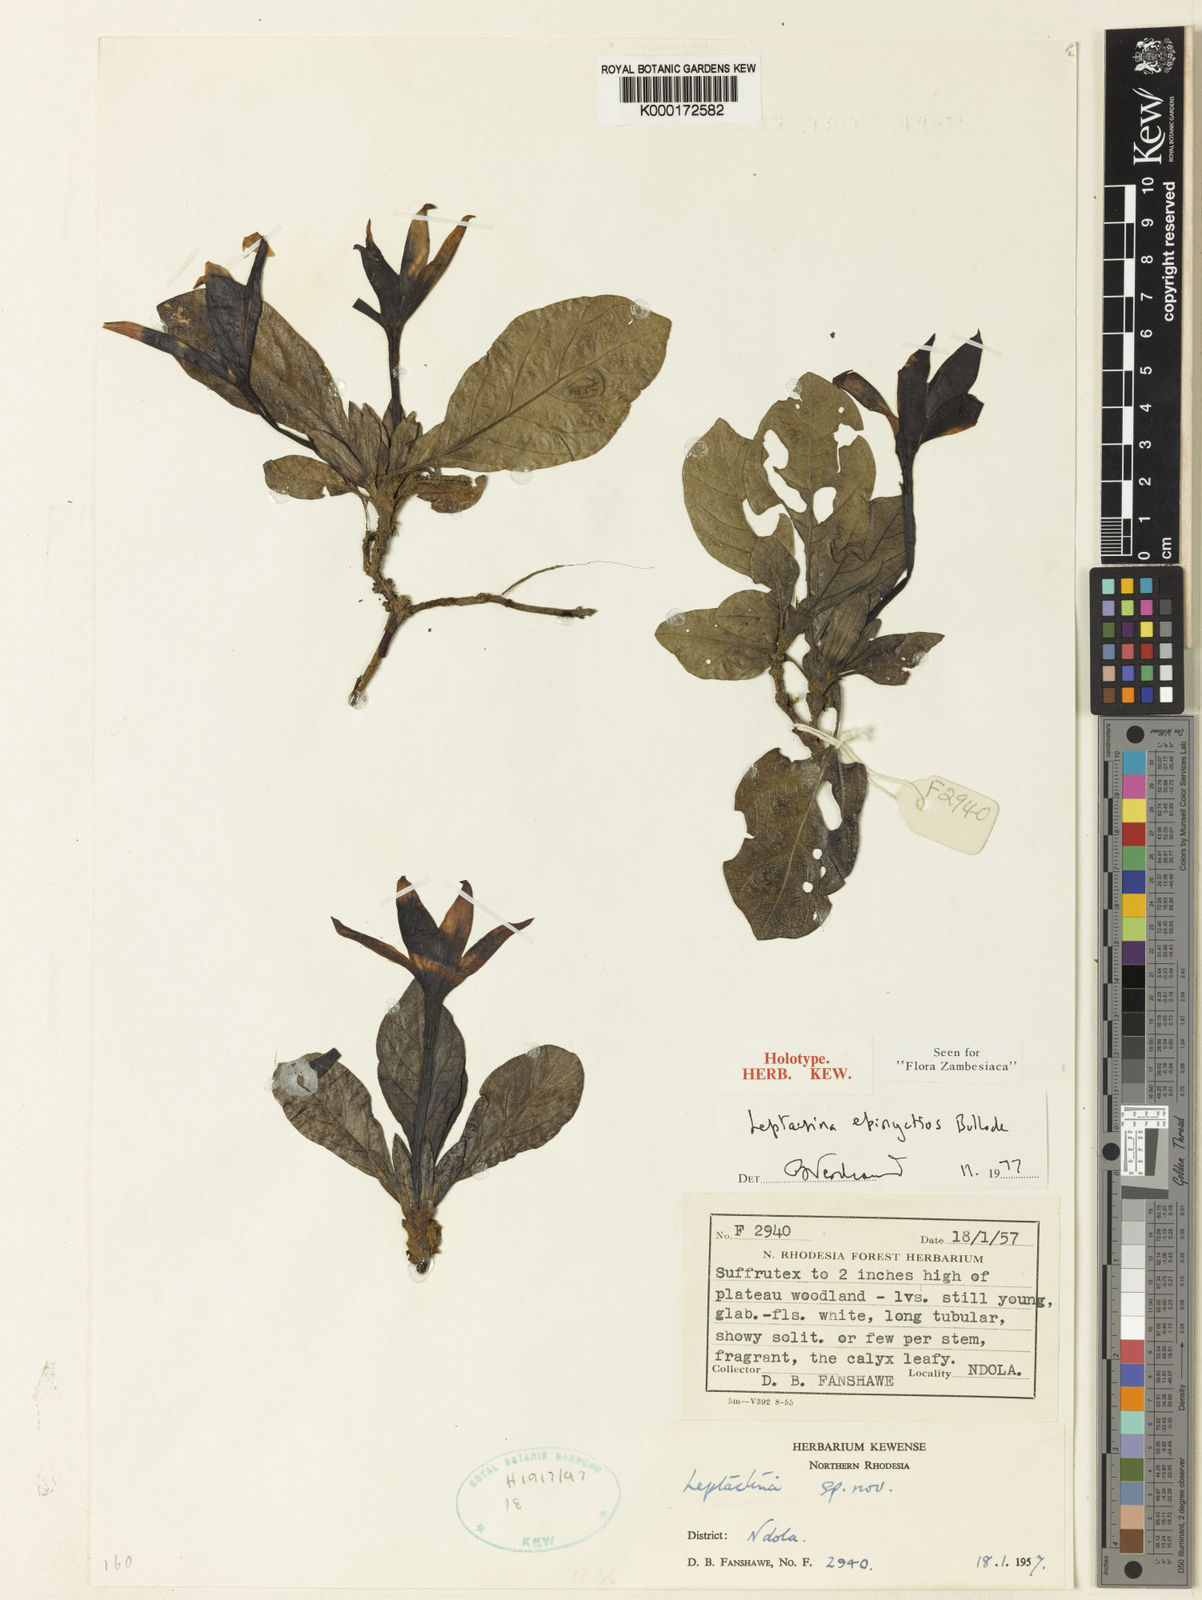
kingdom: Plantae
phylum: Tracheophyta
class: Magnoliopsida
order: Gentianales
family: Rubiaceae
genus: Leptactina
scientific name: Leptactina
